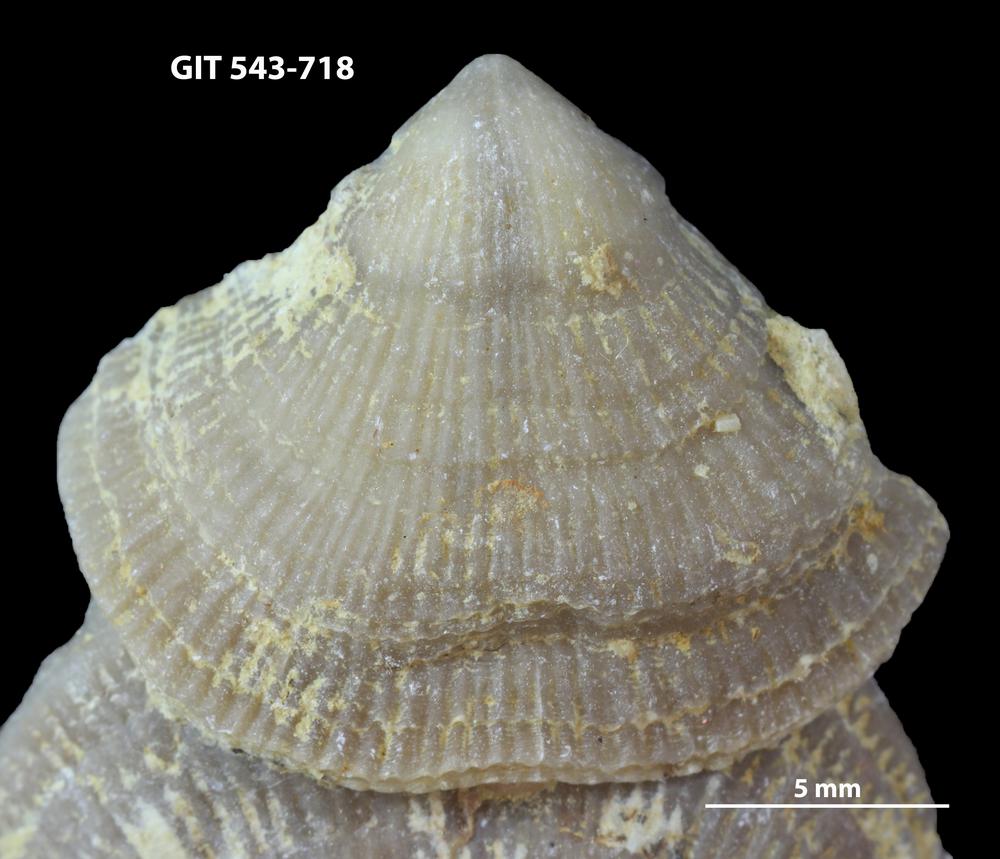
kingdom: Animalia
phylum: Brachiopoda
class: Rhynchonellata
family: Clitambonitidae
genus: Vellamo
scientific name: Vellamo oandoensis
